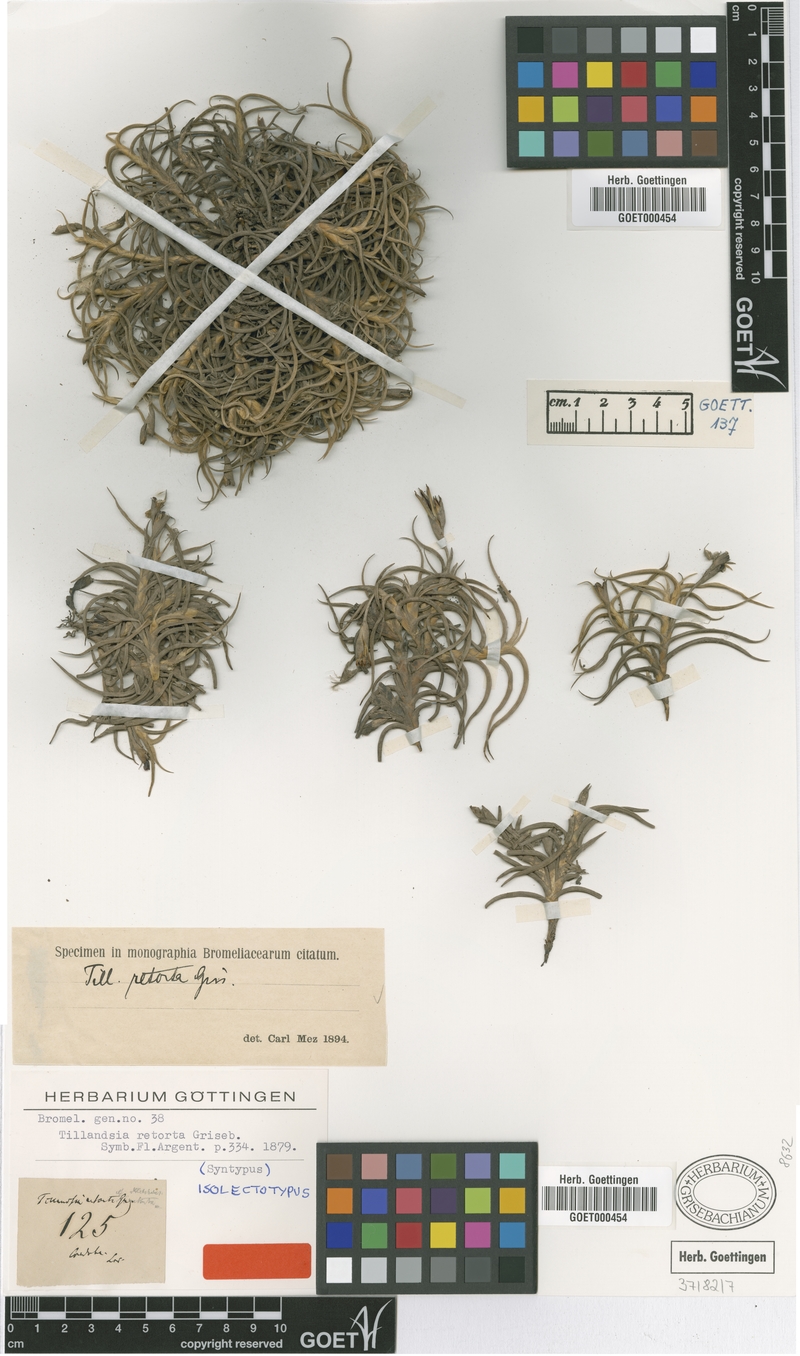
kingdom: Plantae
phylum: Tracheophyta
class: Liliopsida
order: Poales
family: Bromeliaceae
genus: Tillandsia
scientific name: Tillandsia retorta
